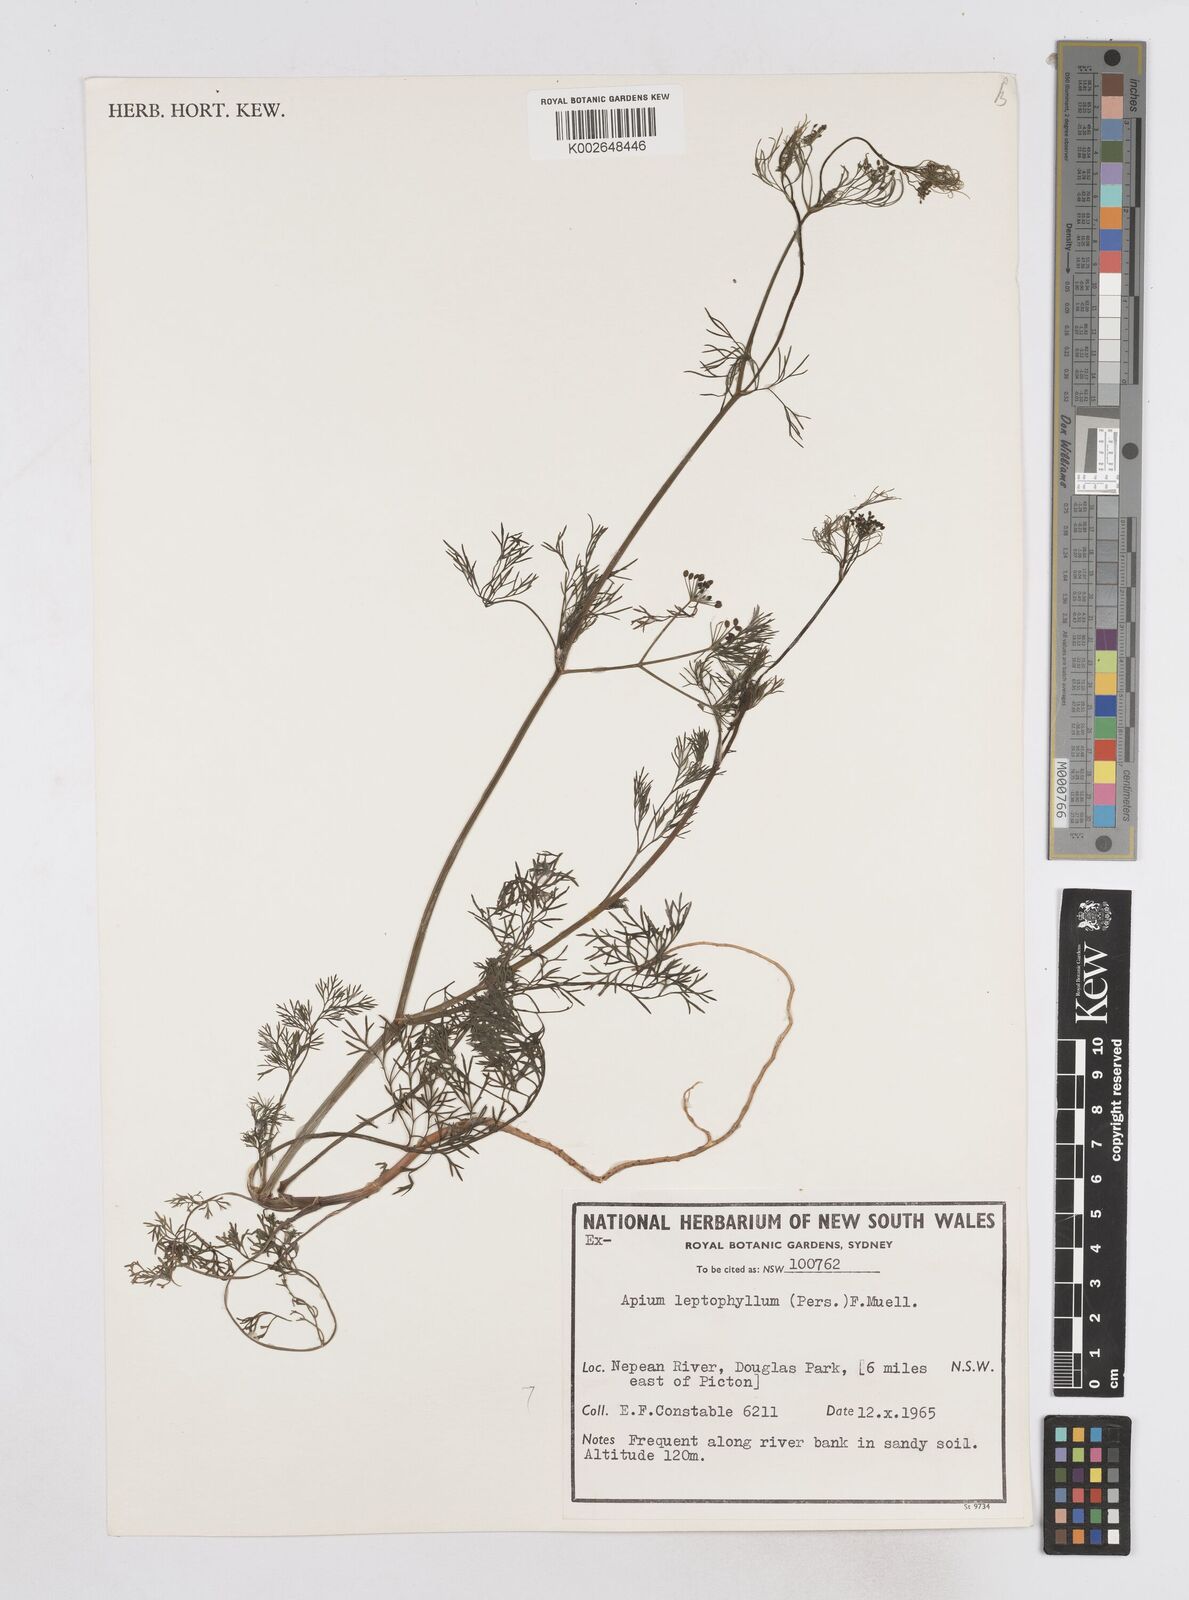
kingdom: Plantae
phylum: Tracheophyta
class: Magnoliopsida
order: Apiales
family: Apiaceae
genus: Cyclospermum
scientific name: Cyclospermum leptophyllum
